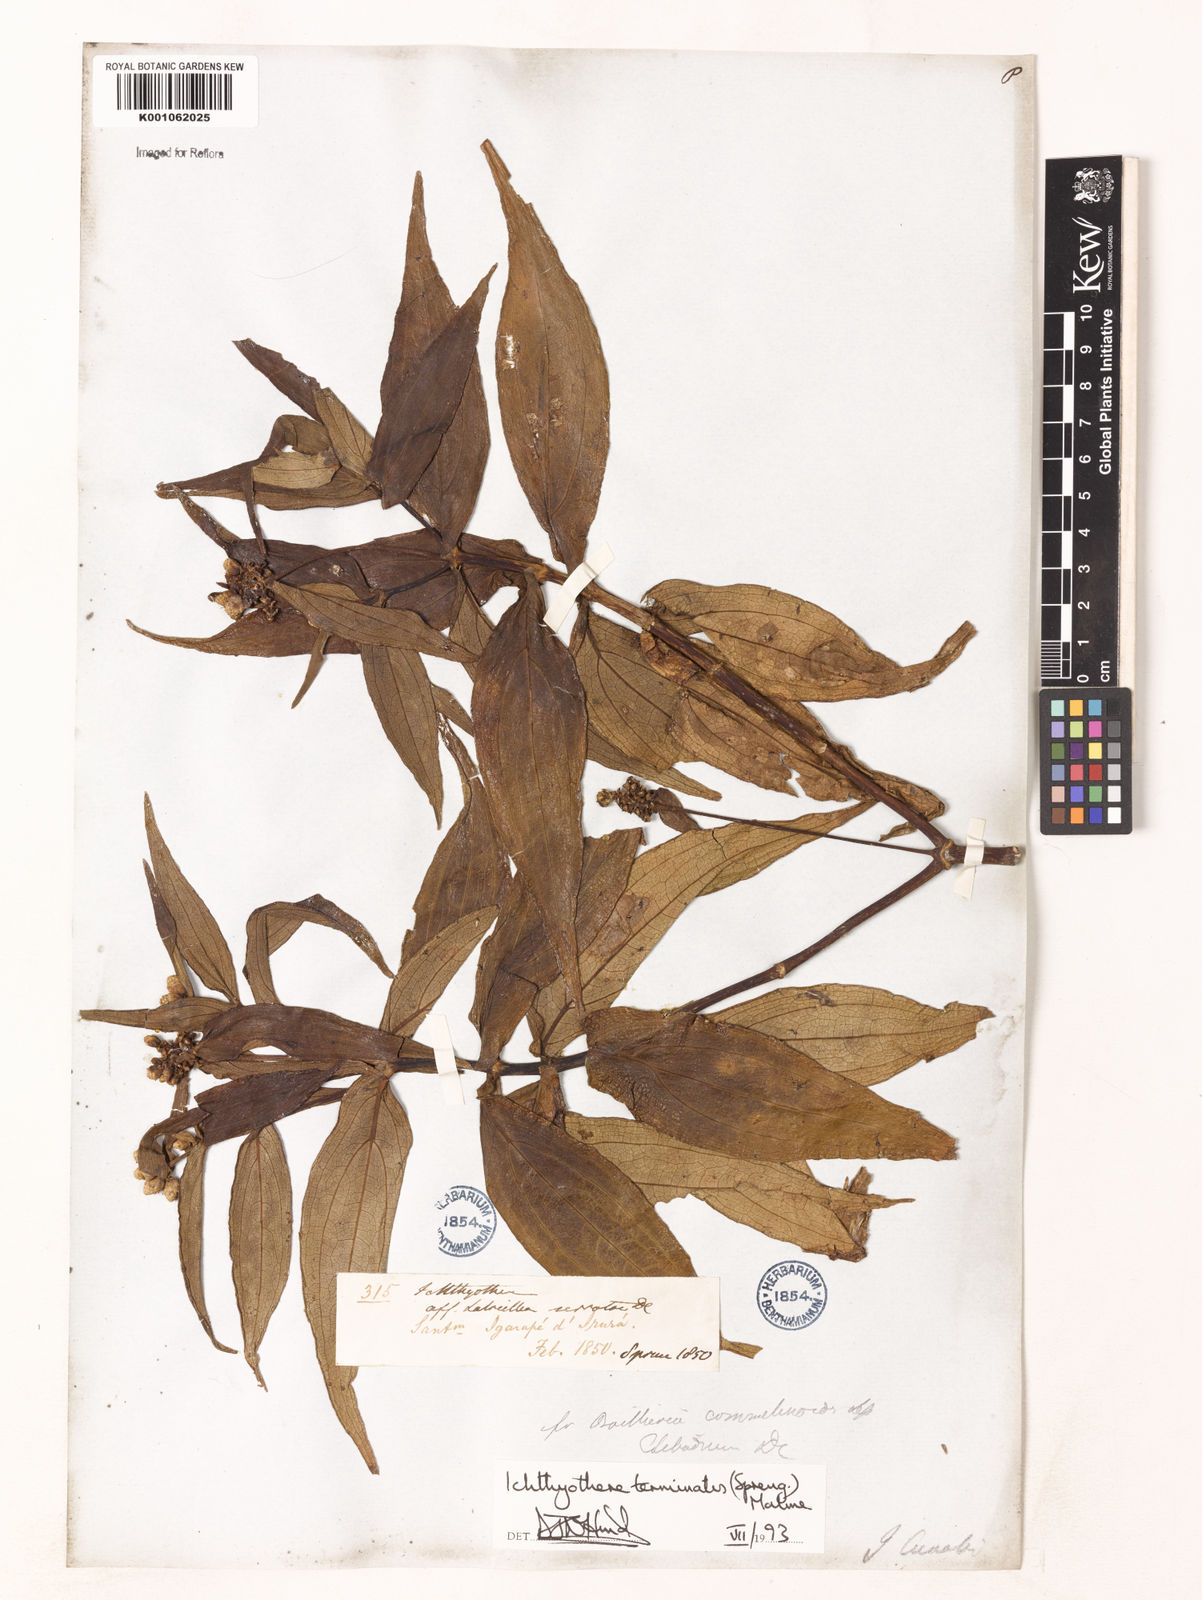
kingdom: Plantae
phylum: Tracheophyta
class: Magnoliopsida
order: Asterales
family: Asteraceae
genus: Ichthyothere
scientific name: Ichthyothere terminalis
